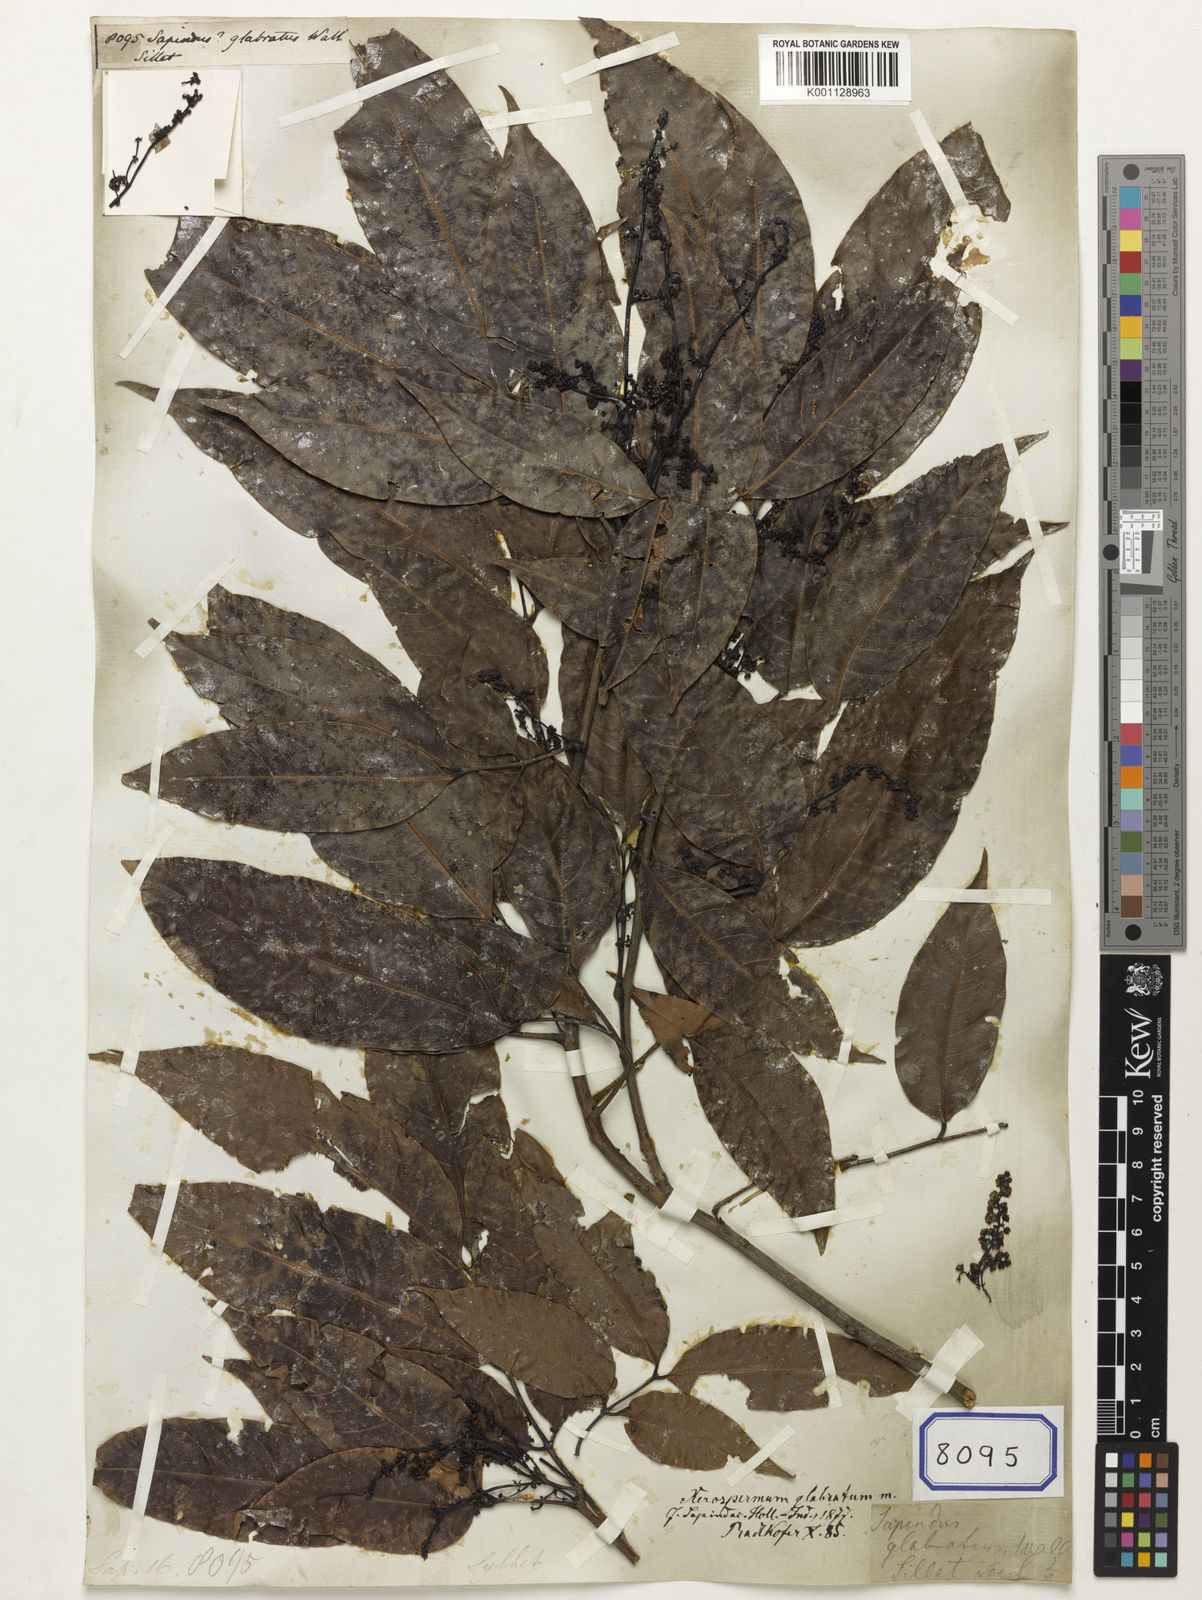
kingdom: Plantae
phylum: Tracheophyta
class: Magnoliopsida
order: Sapindales
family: Sapindaceae
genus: Xerospermum
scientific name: Xerospermum noronhianum
